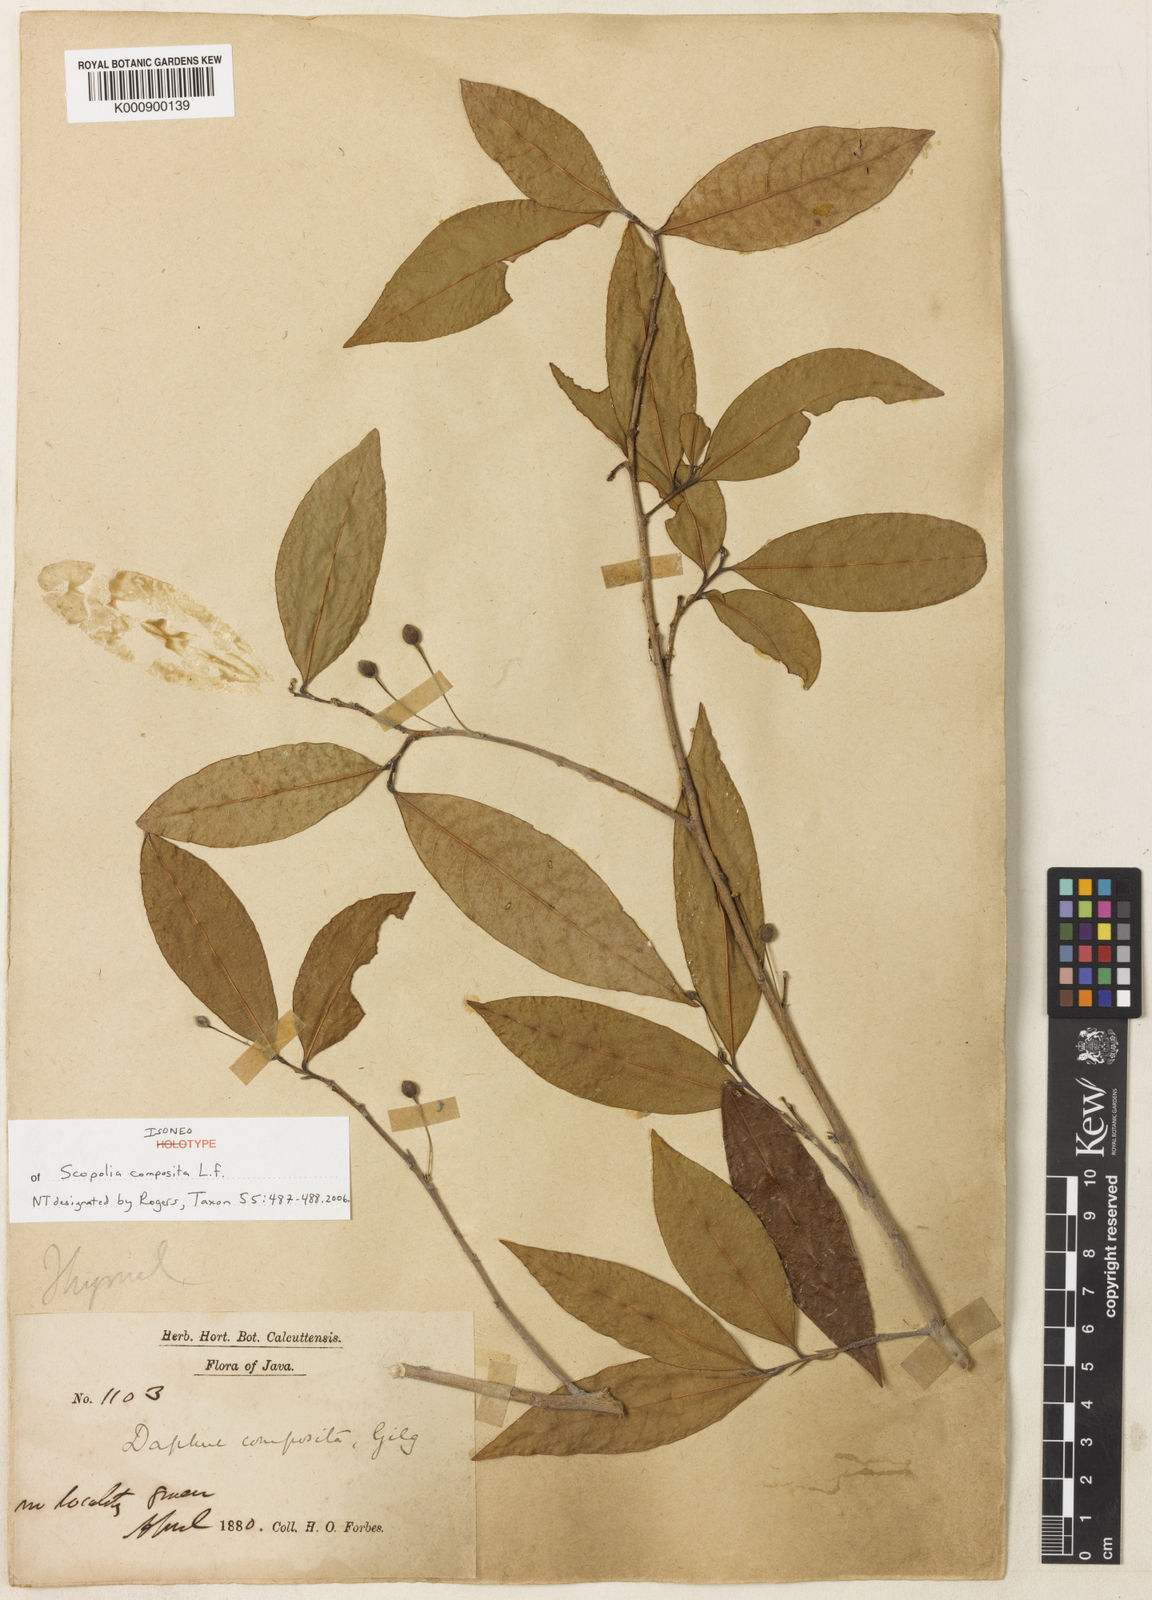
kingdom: Plantae
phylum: Tracheophyta
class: Magnoliopsida
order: Malvales
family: Thymelaeaceae
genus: Daphne
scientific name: Daphne composita
